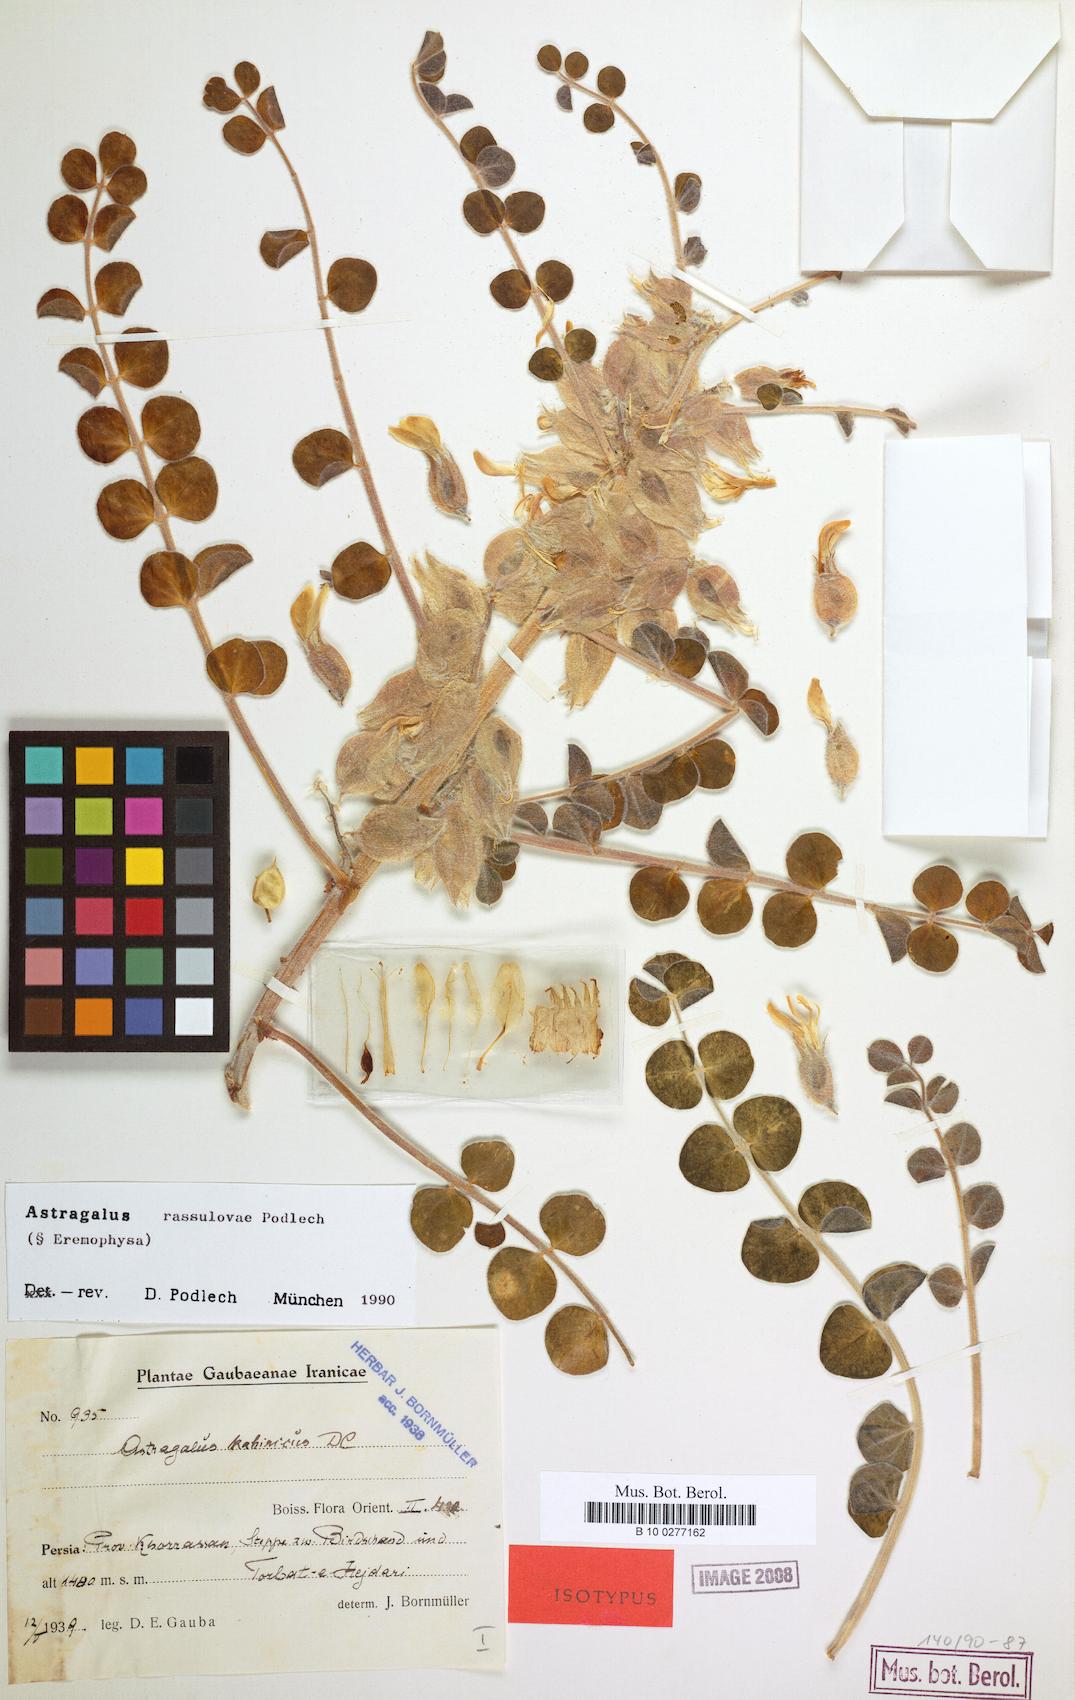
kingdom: Plantae
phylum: Tracheophyta
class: Magnoliopsida
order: Fabales
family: Fabaceae
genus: Astragalus
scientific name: Astragalus rassulovae
